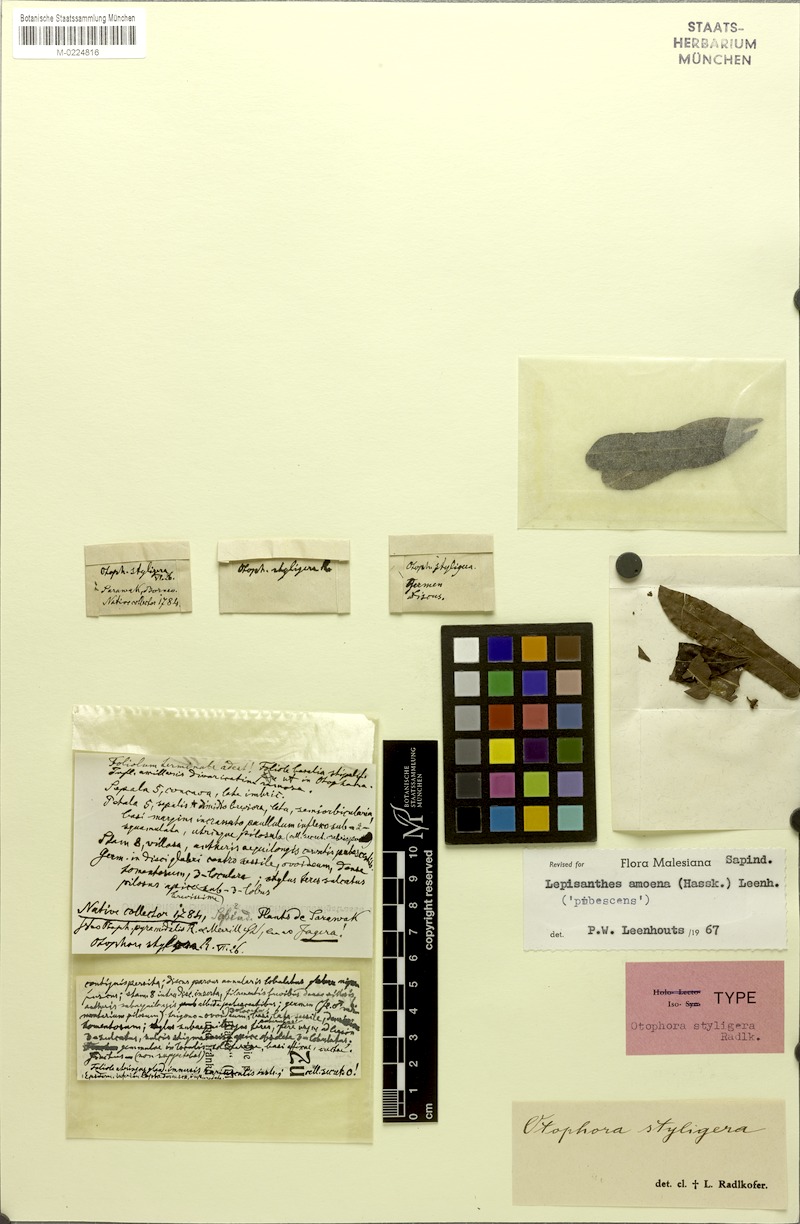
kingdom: Plantae
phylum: Tracheophyta
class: Magnoliopsida
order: Sapindales
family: Sapindaceae
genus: Lepisanthes
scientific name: Lepisanthes amoena
